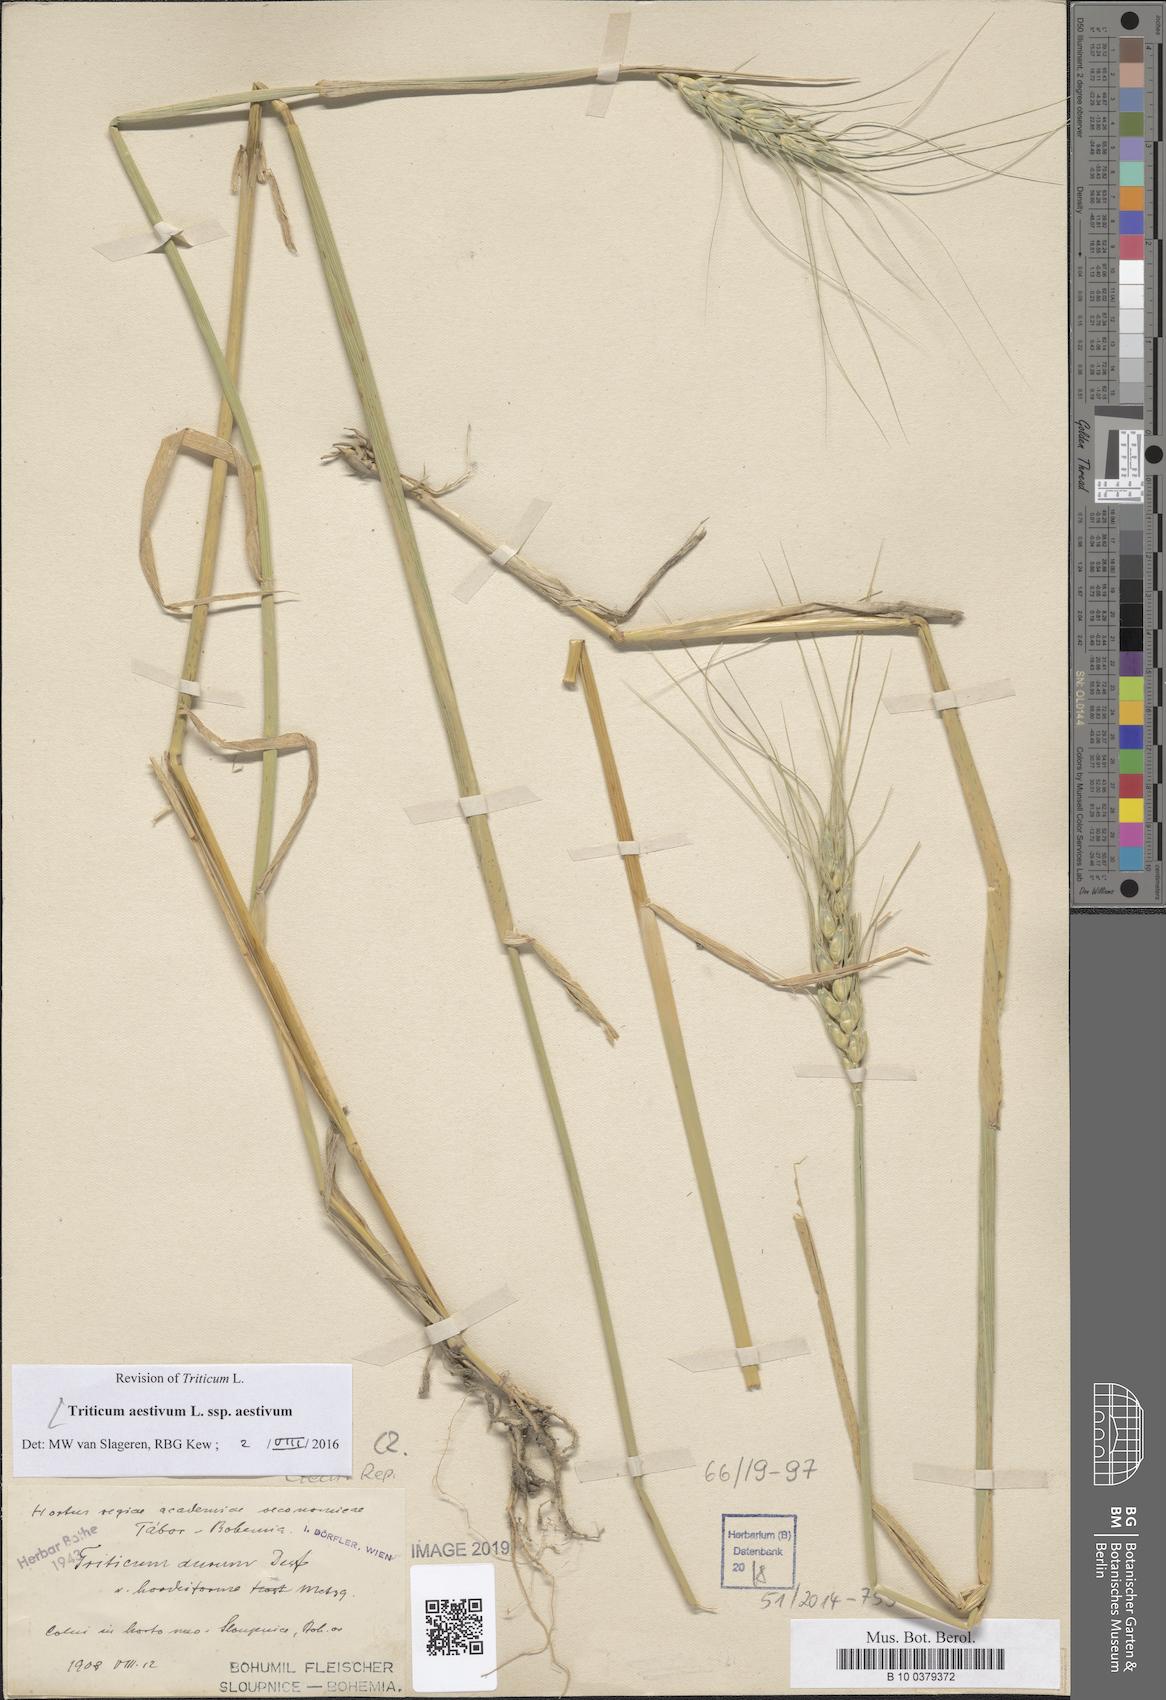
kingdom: Plantae
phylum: Tracheophyta
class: Liliopsida
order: Poales
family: Poaceae
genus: Triticum
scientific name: Triticum aestivum
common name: Common wheat
